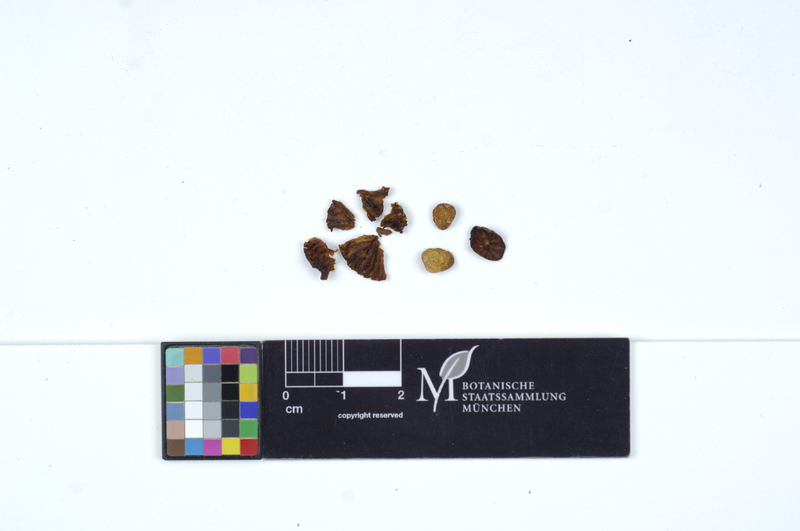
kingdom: Fungi
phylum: Basidiomycota
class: Agaricomycetes
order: Agaricales
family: Hygrophoraceae
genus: Hygrophorus
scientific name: Hygrophorus alpinus
